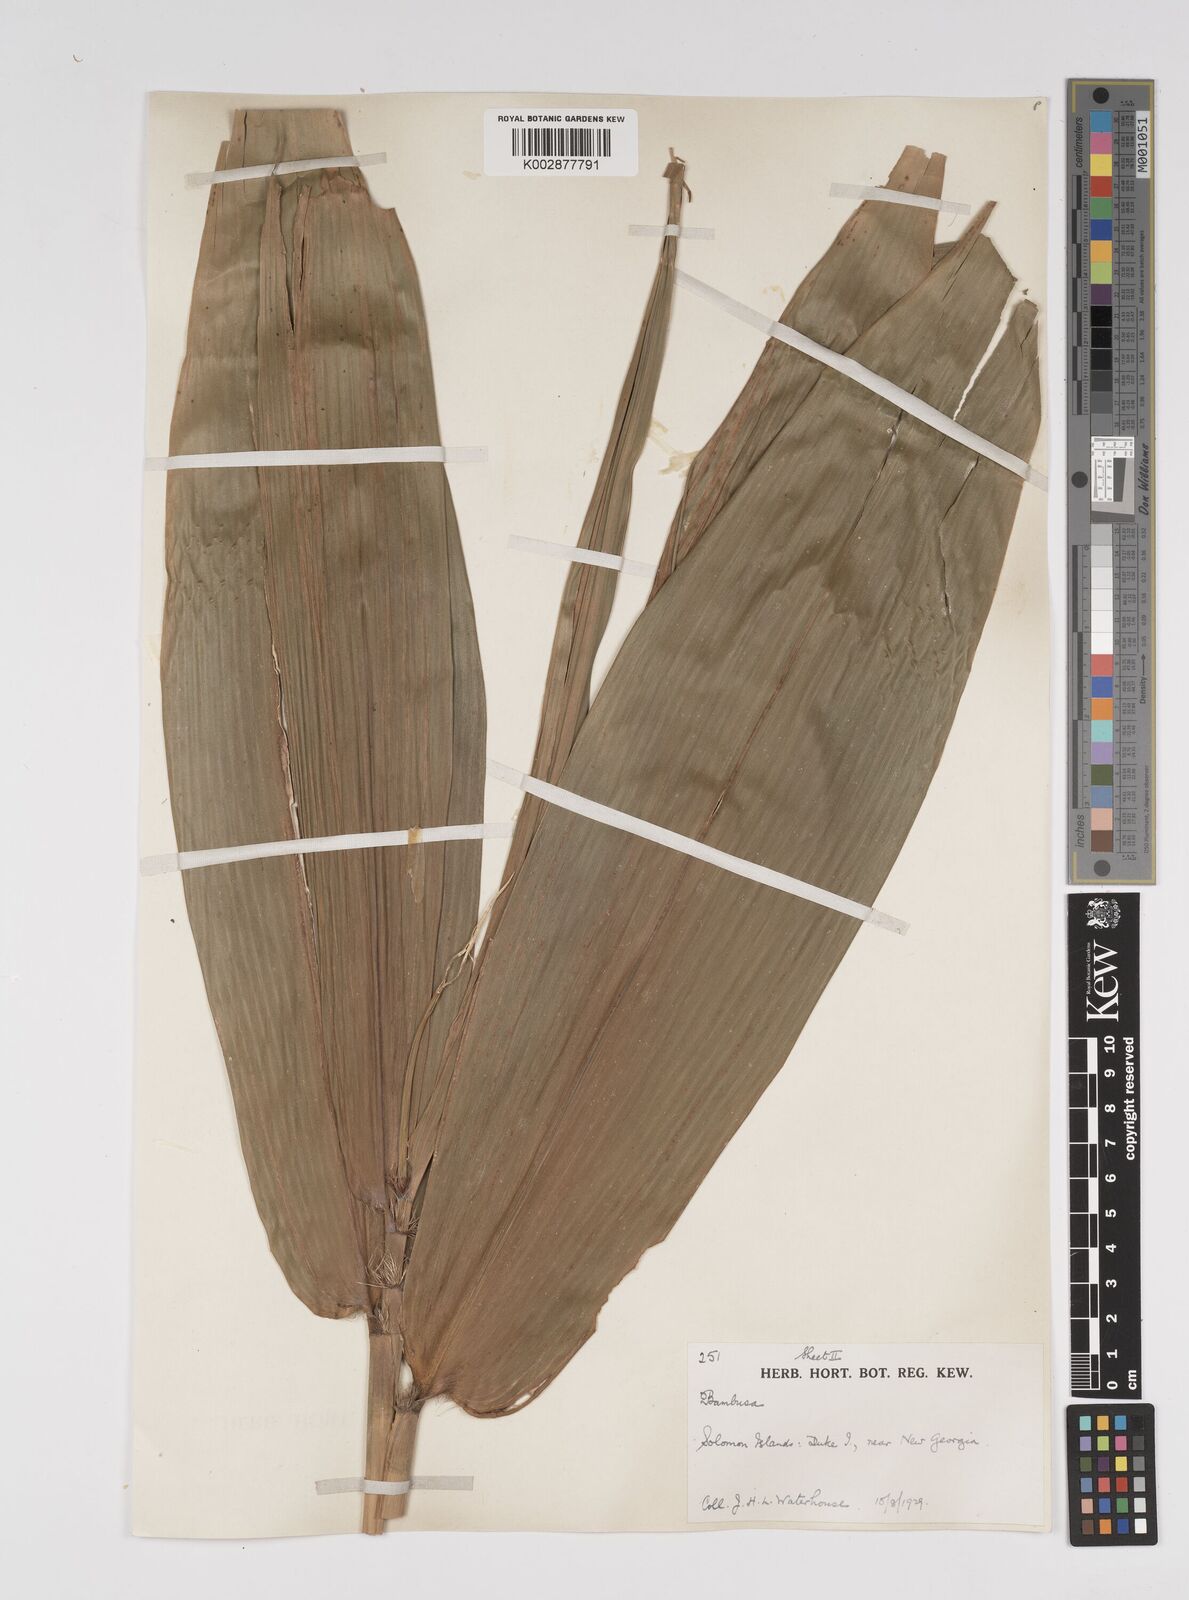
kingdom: Plantae
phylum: Tracheophyta
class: Liliopsida
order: Poales
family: Poaceae
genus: Bambusa
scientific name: Bambusa
